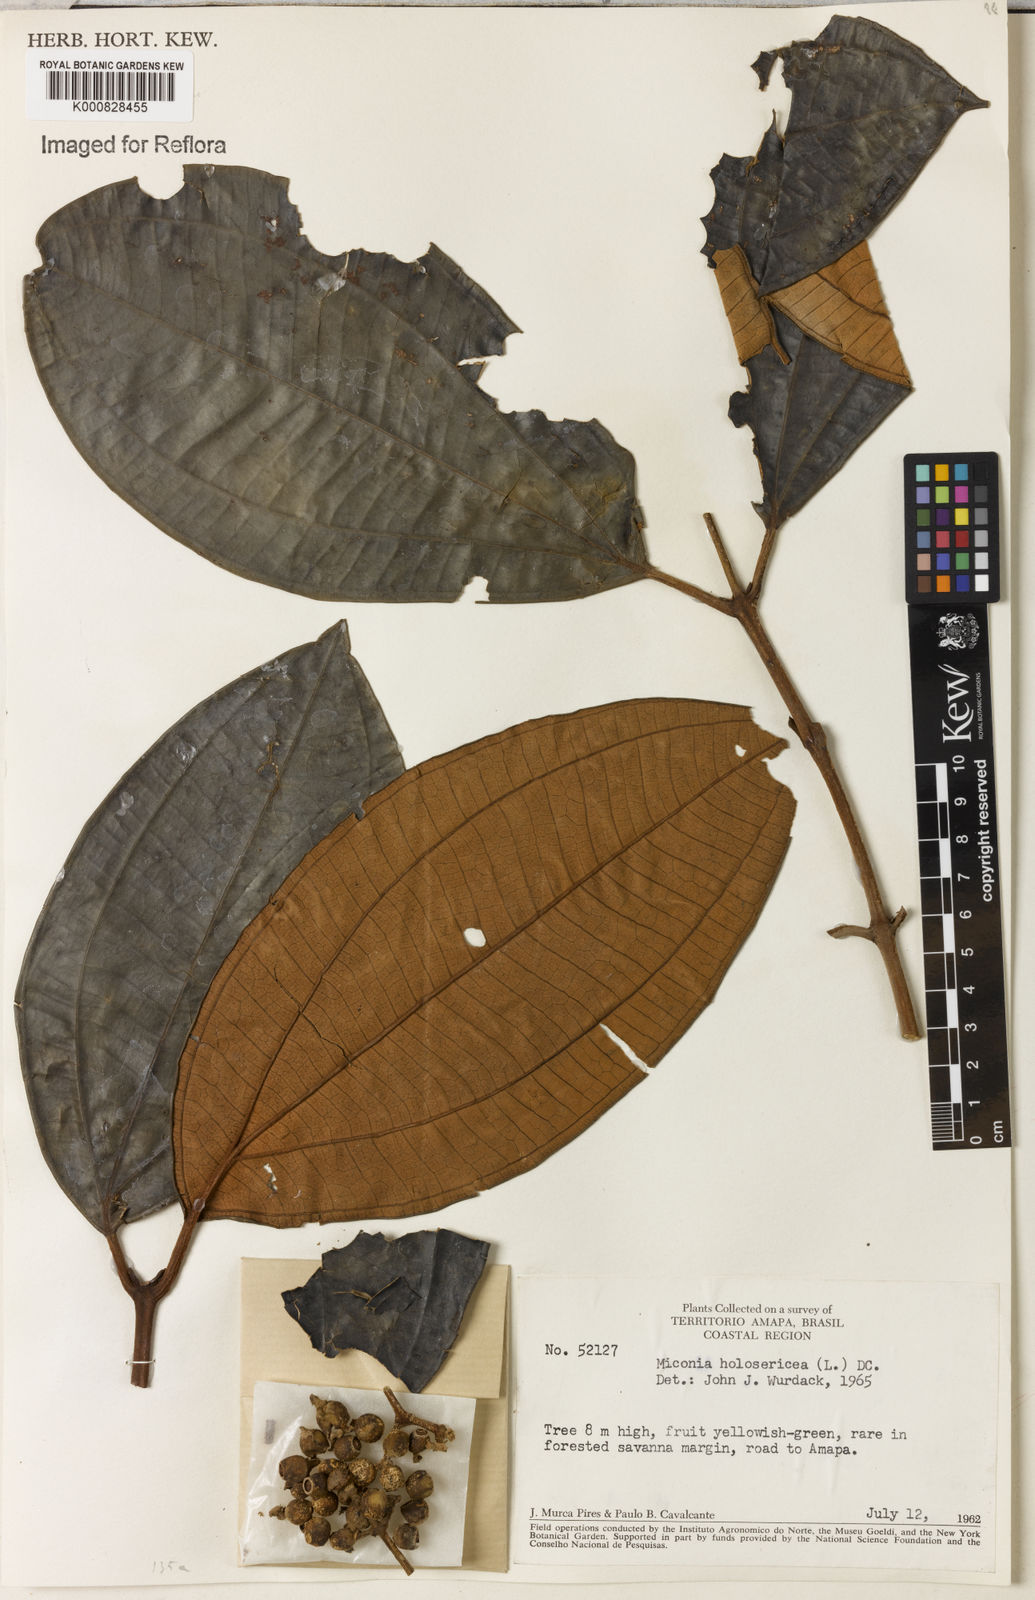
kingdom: Plantae
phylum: Tracheophyta
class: Magnoliopsida
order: Myrtales
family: Melastomataceae
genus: Miconia
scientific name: Miconia holosericea
